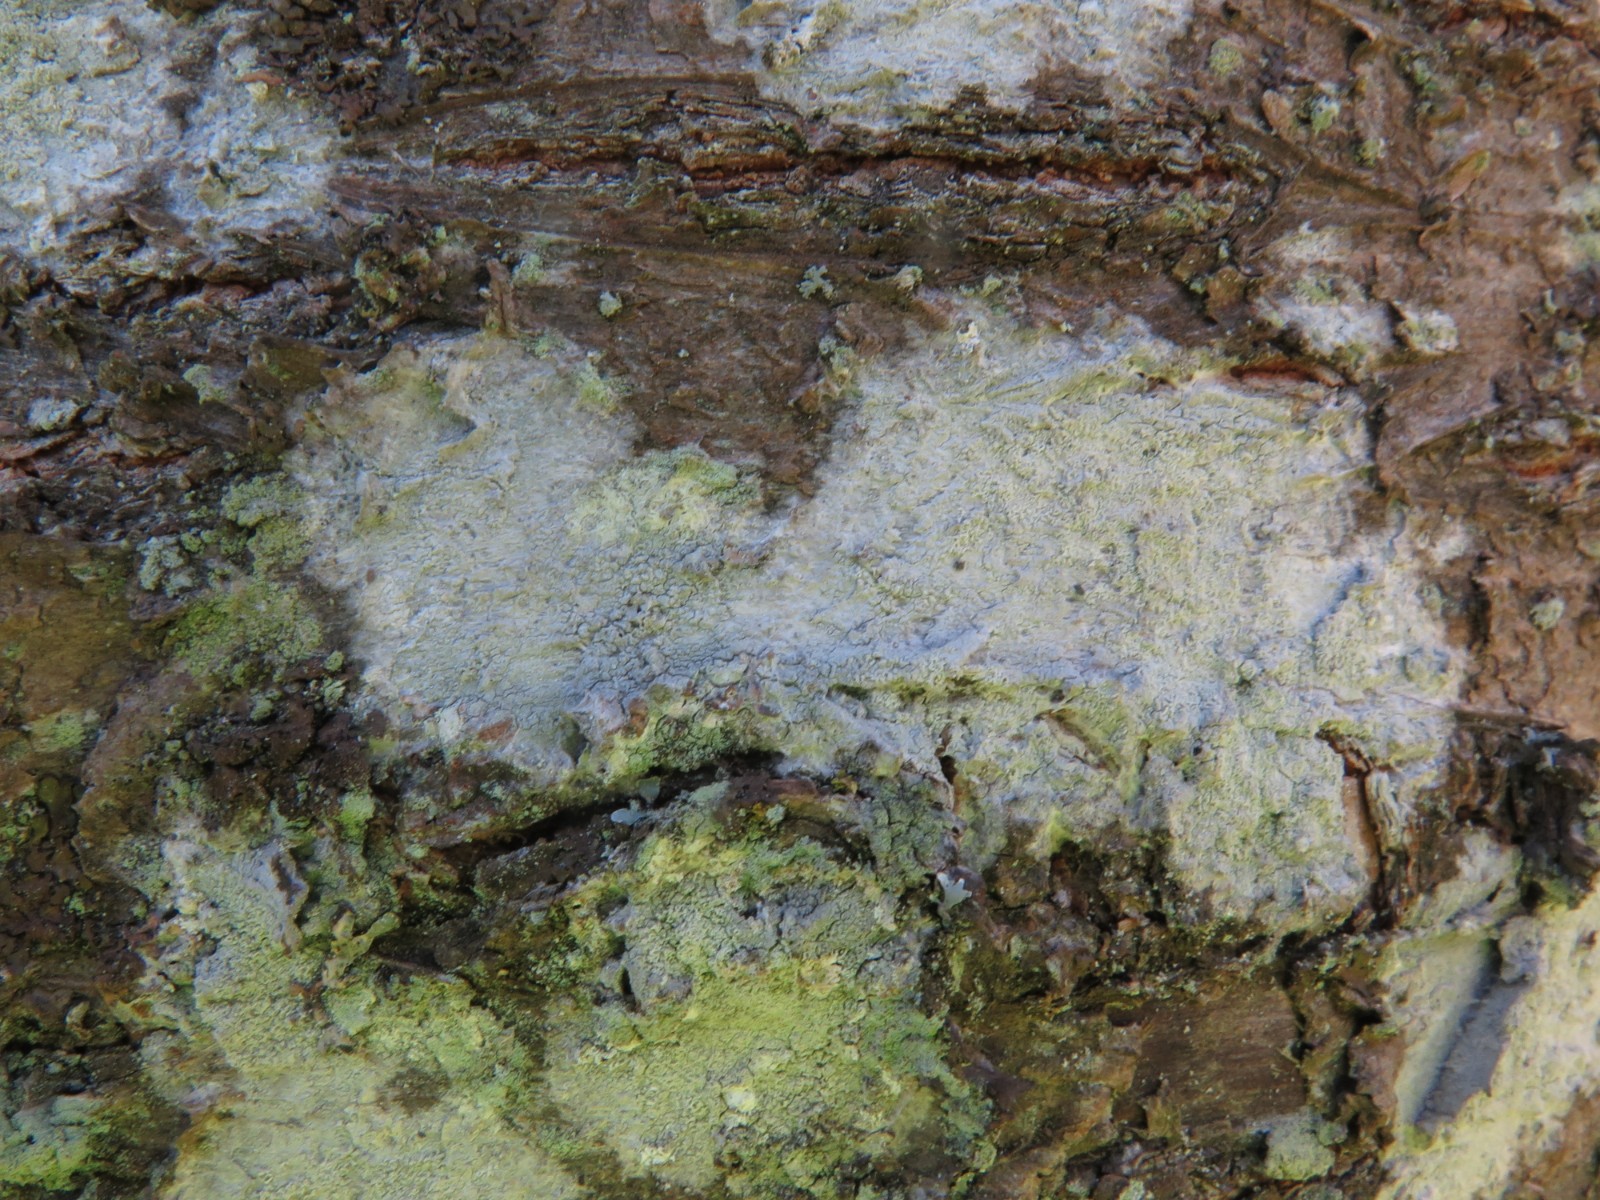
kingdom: Fungi
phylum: Ascomycota
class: Lecanoromycetes
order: Ostropales
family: Phlyctidaceae
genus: Phlyctis
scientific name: Phlyctis argena
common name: almindelig sølvlav
